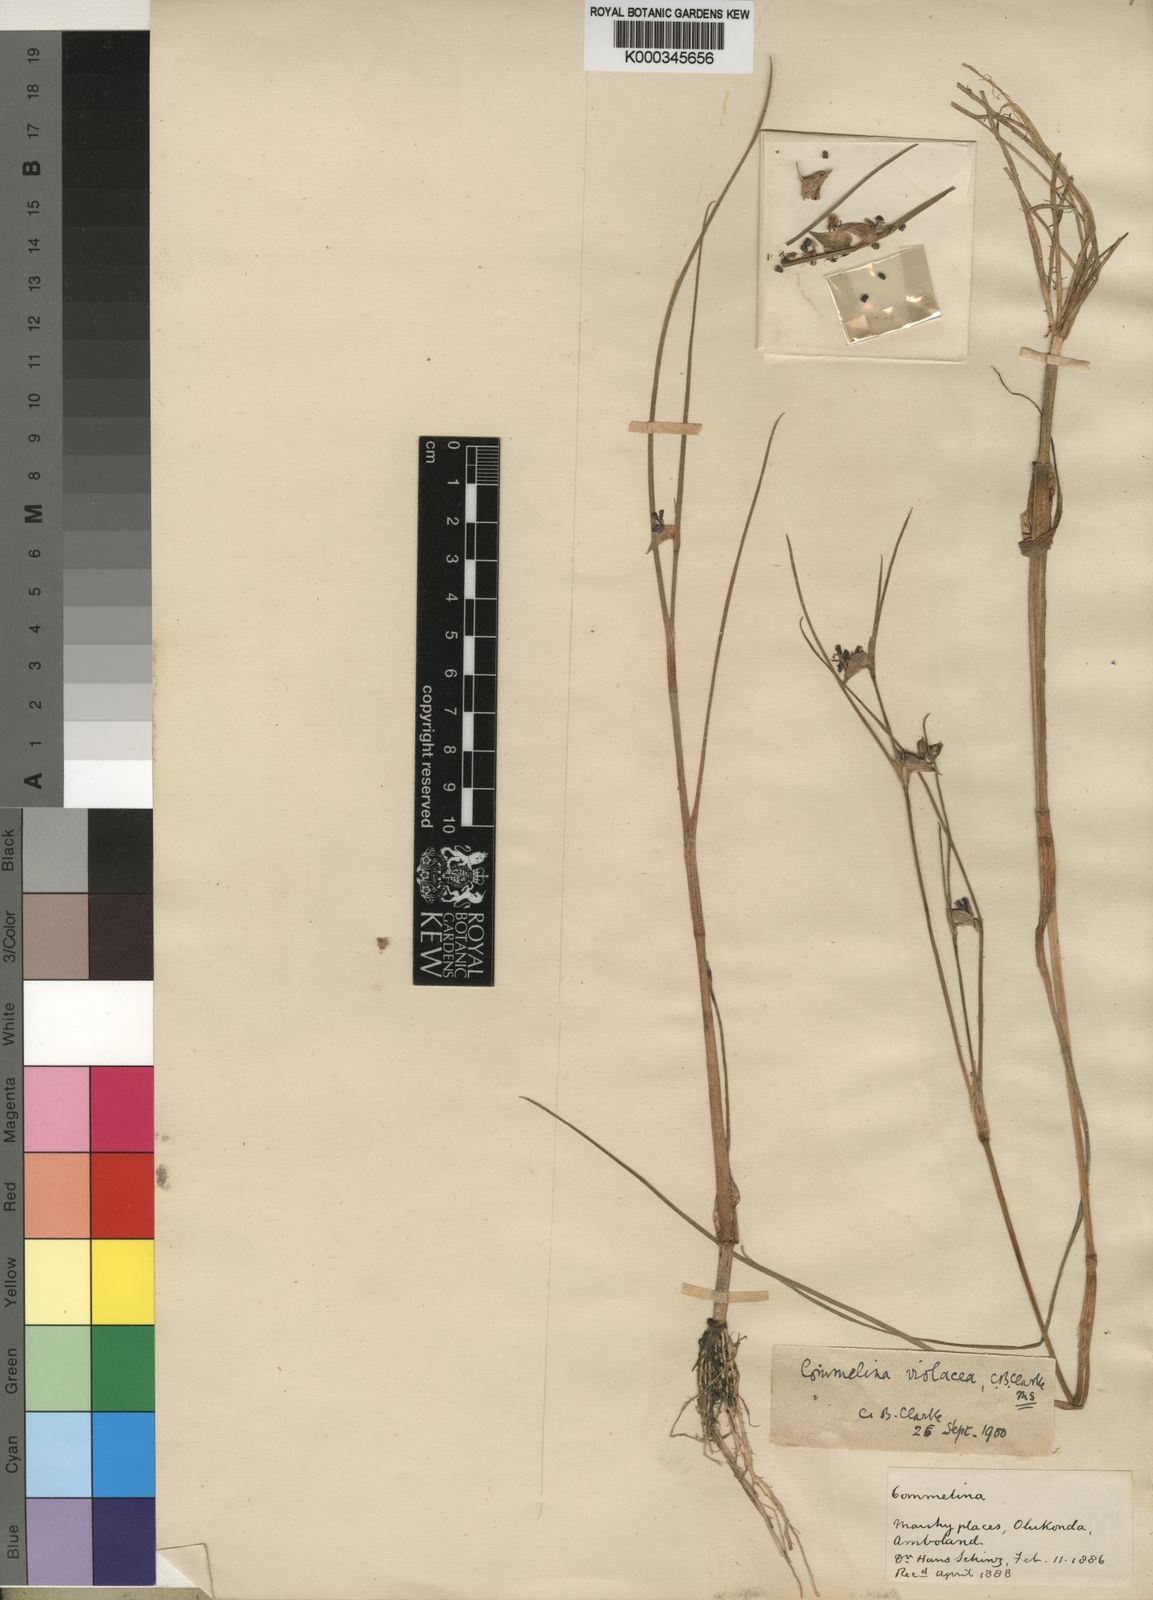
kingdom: Plantae
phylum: Tracheophyta
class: Liliopsida
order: Commelinales
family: Commelinaceae
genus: Commelina
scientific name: Commelina subulata
